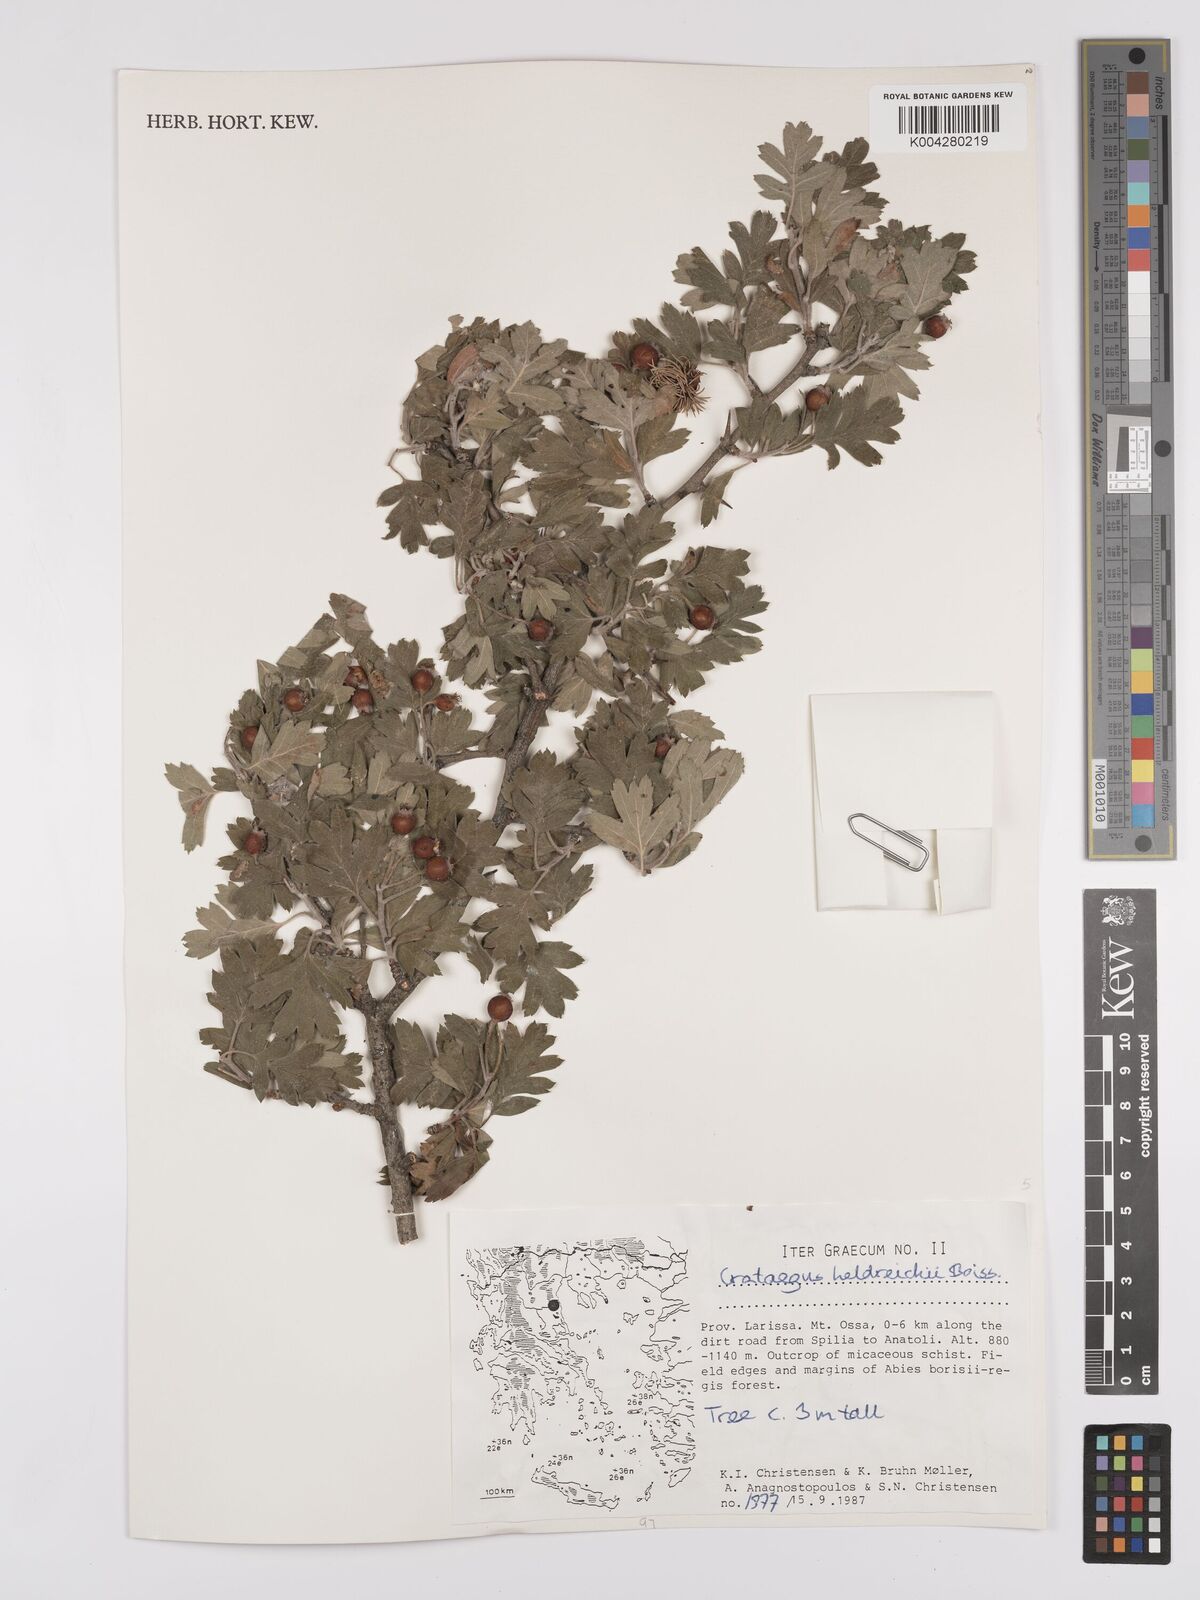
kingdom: Plantae
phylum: Tracheophyta
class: Magnoliopsida
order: Rosales
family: Rosaceae
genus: Crataegus
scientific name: Crataegus heldreichii
